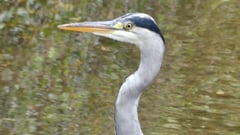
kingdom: Animalia
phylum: Chordata
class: Aves
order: Pelecaniformes
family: Ardeidae
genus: Ardea
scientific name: Ardea cinerea
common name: Grey heron
